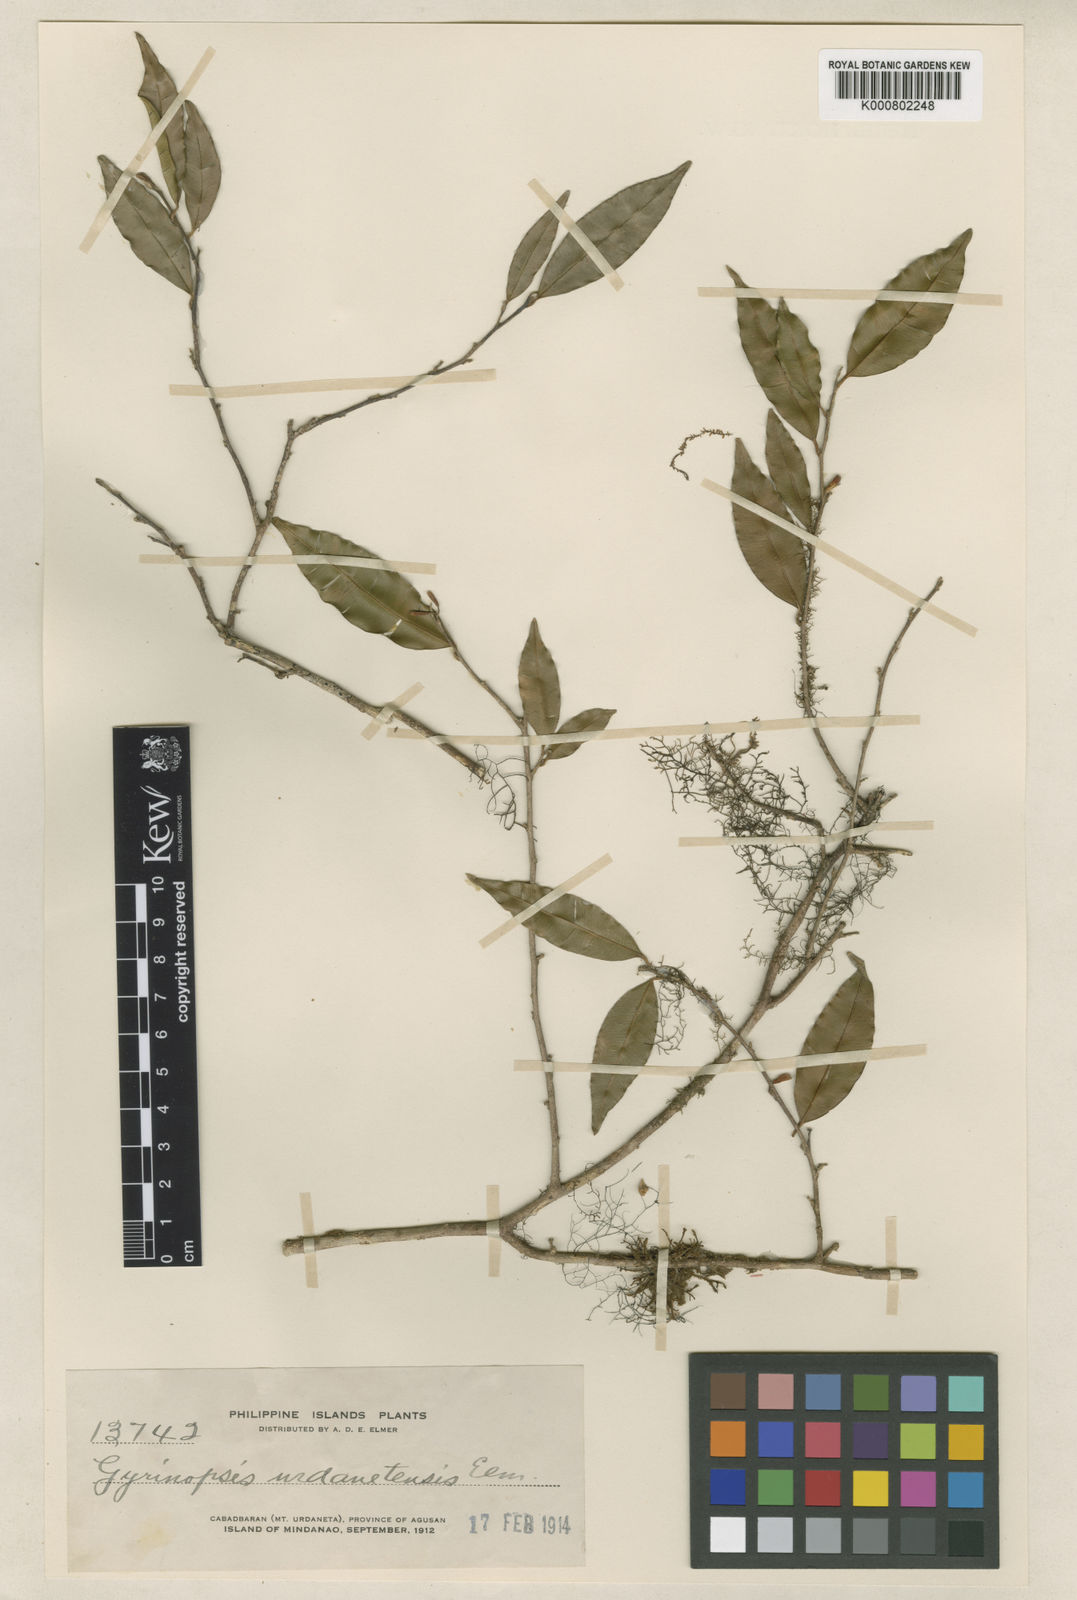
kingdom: Plantae
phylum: Tracheophyta
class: Magnoliopsida
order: Malvales
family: Thymelaeaceae
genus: Aquilaria
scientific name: Aquilaria urdanetensis
